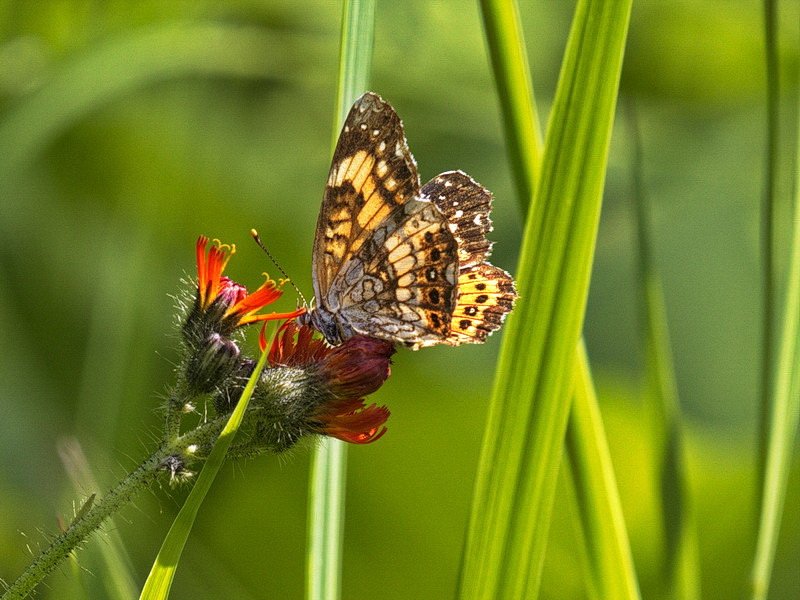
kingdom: Animalia
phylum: Arthropoda
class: Insecta
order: Lepidoptera
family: Nymphalidae
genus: Chlosyne
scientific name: Chlosyne nycteis
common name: Silvery Checkerspot
